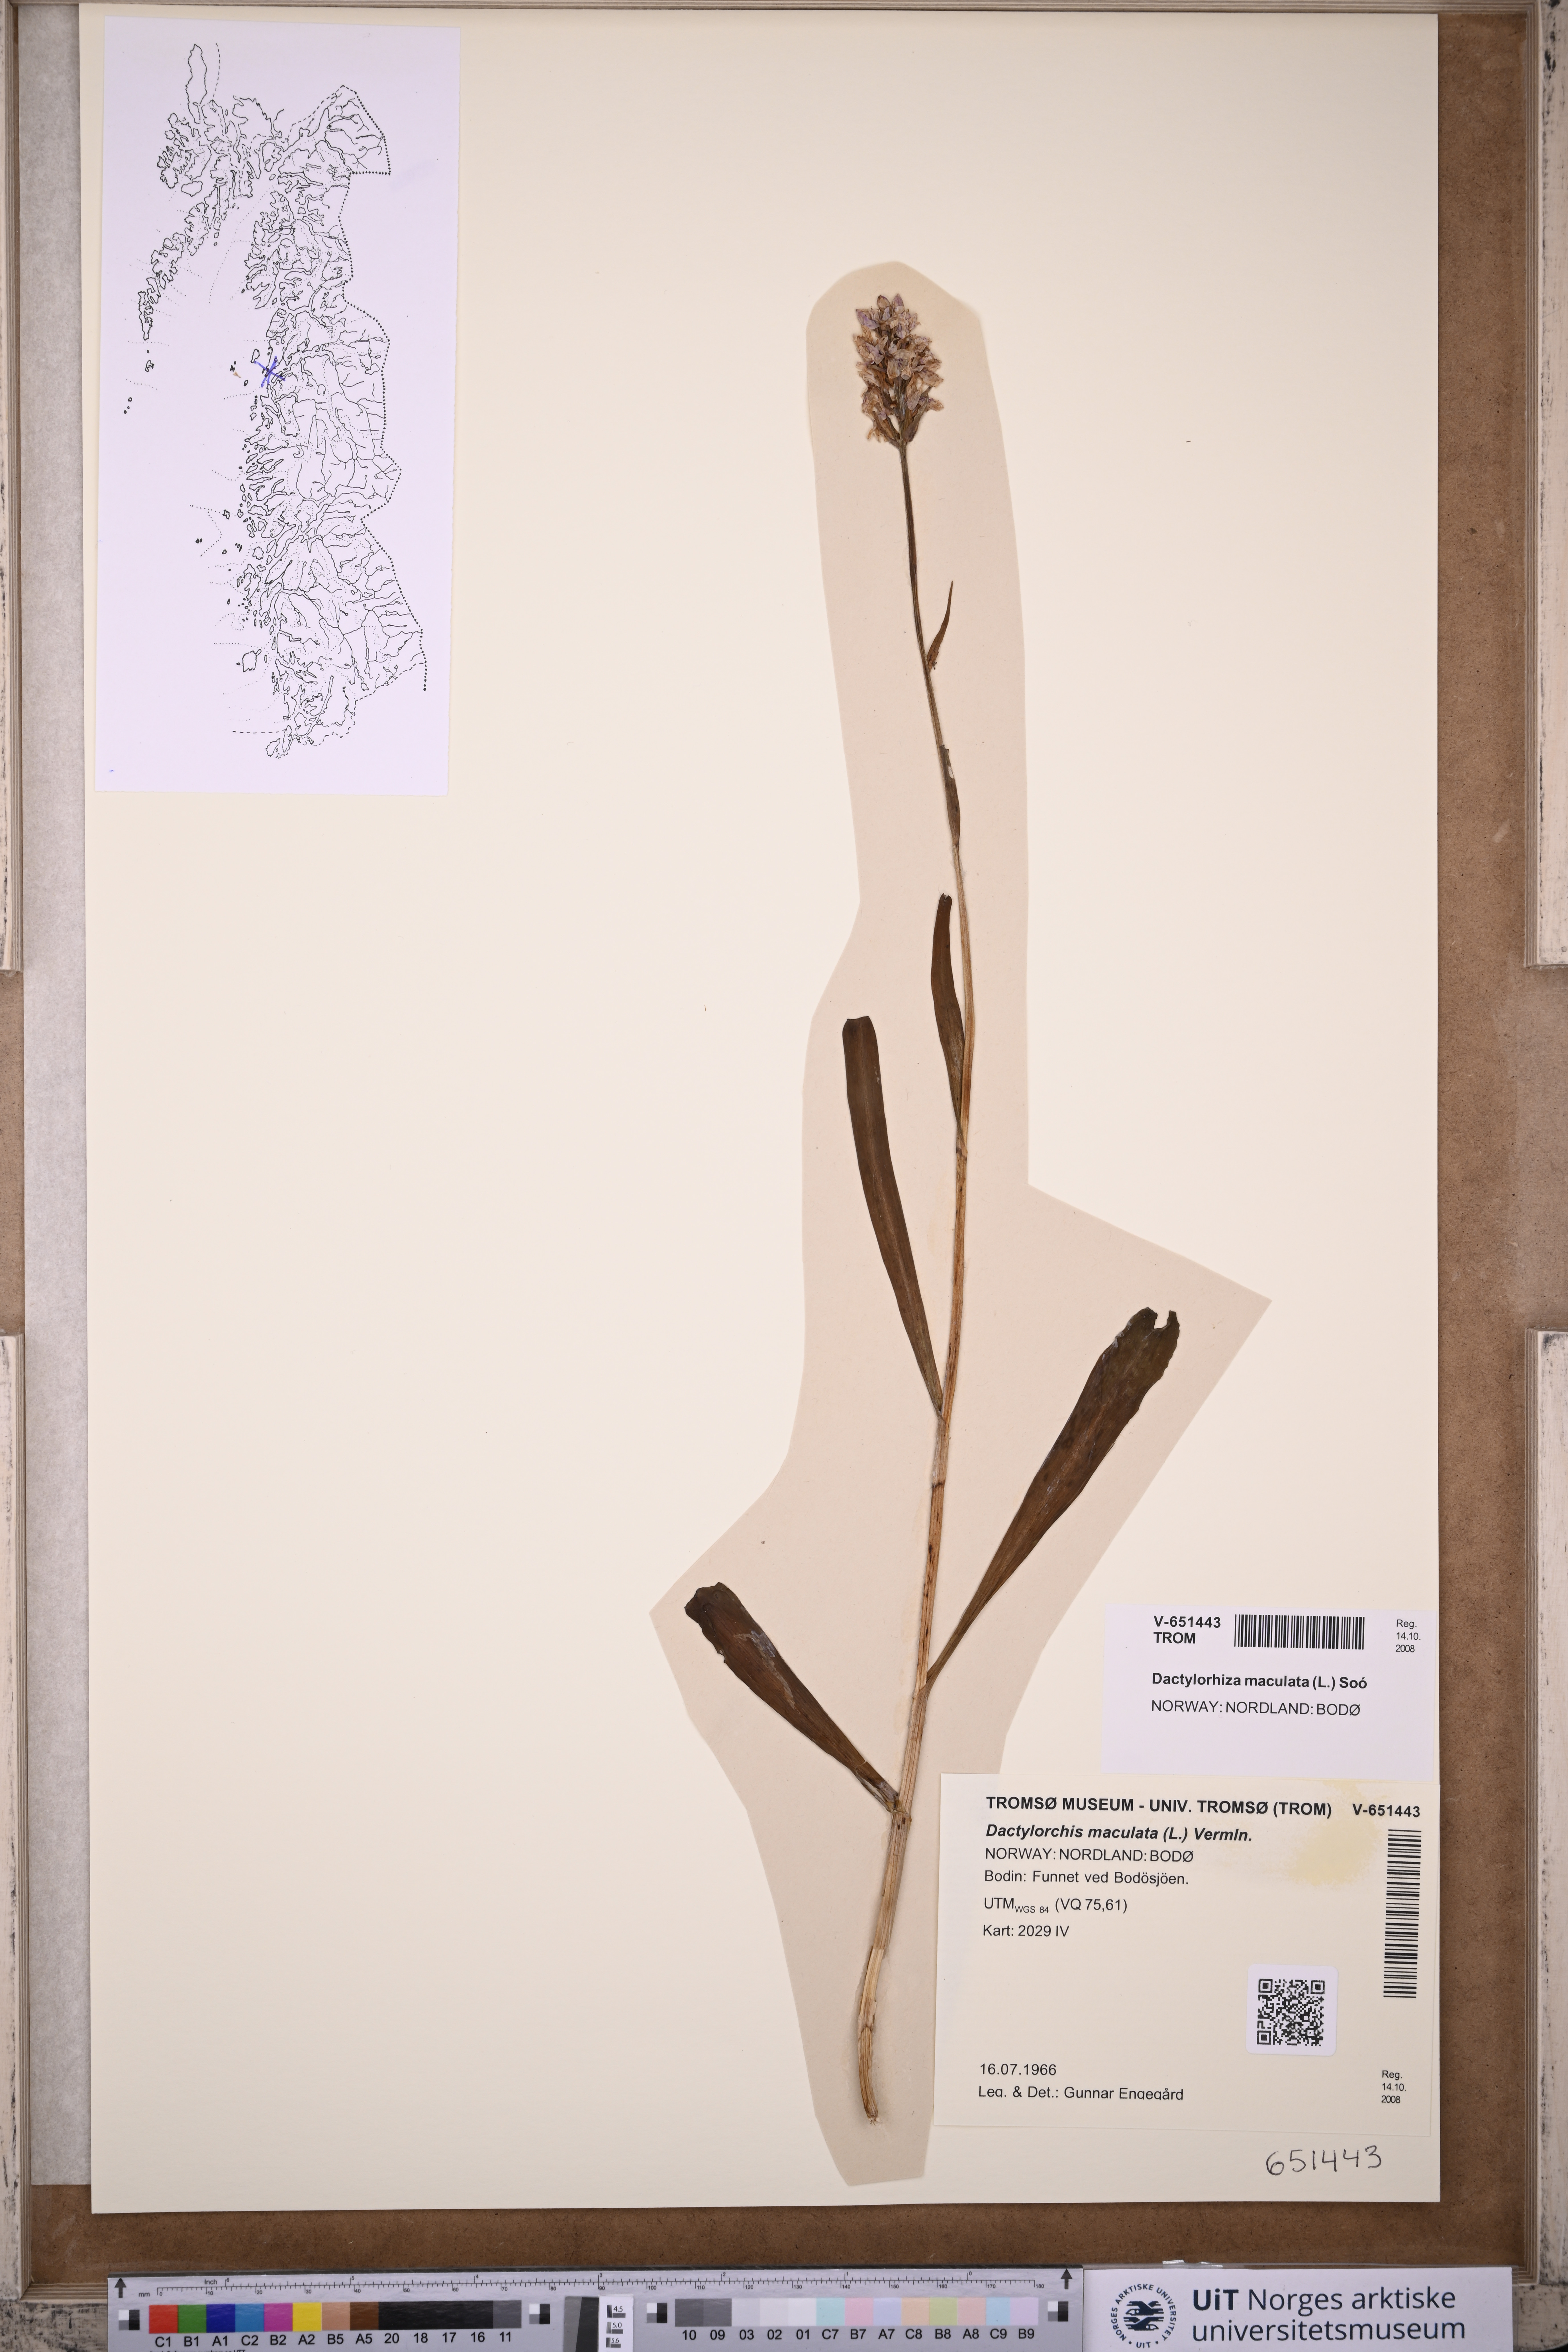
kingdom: Plantae
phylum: Tracheophyta
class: Liliopsida
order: Asparagales
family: Orchidaceae
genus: Dactylorhiza
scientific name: Dactylorhiza maculata
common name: Heath spotted-orchid
